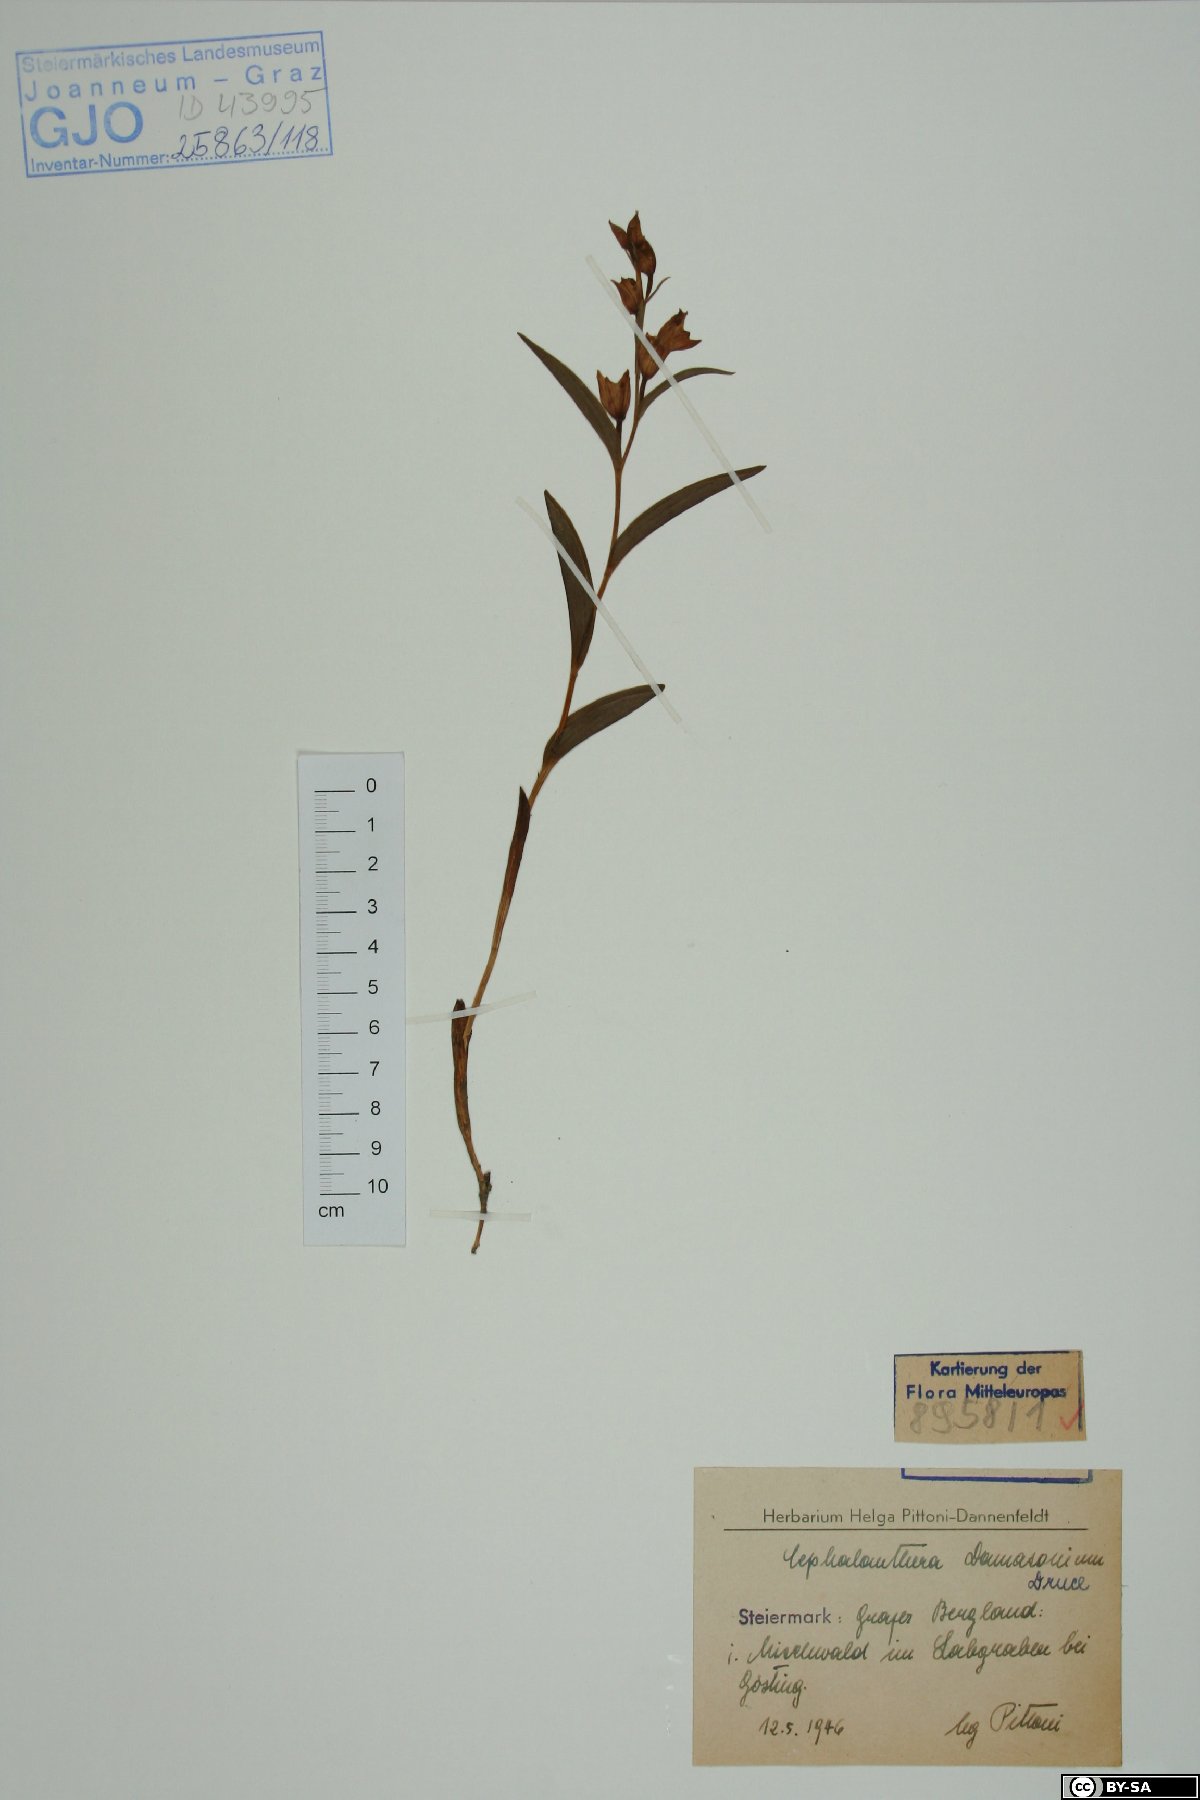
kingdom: Plantae
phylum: Tracheophyta
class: Liliopsida
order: Asparagales
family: Orchidaceae
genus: Cephalanthera
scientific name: Cephalanthera damasonium
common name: White helleborine
